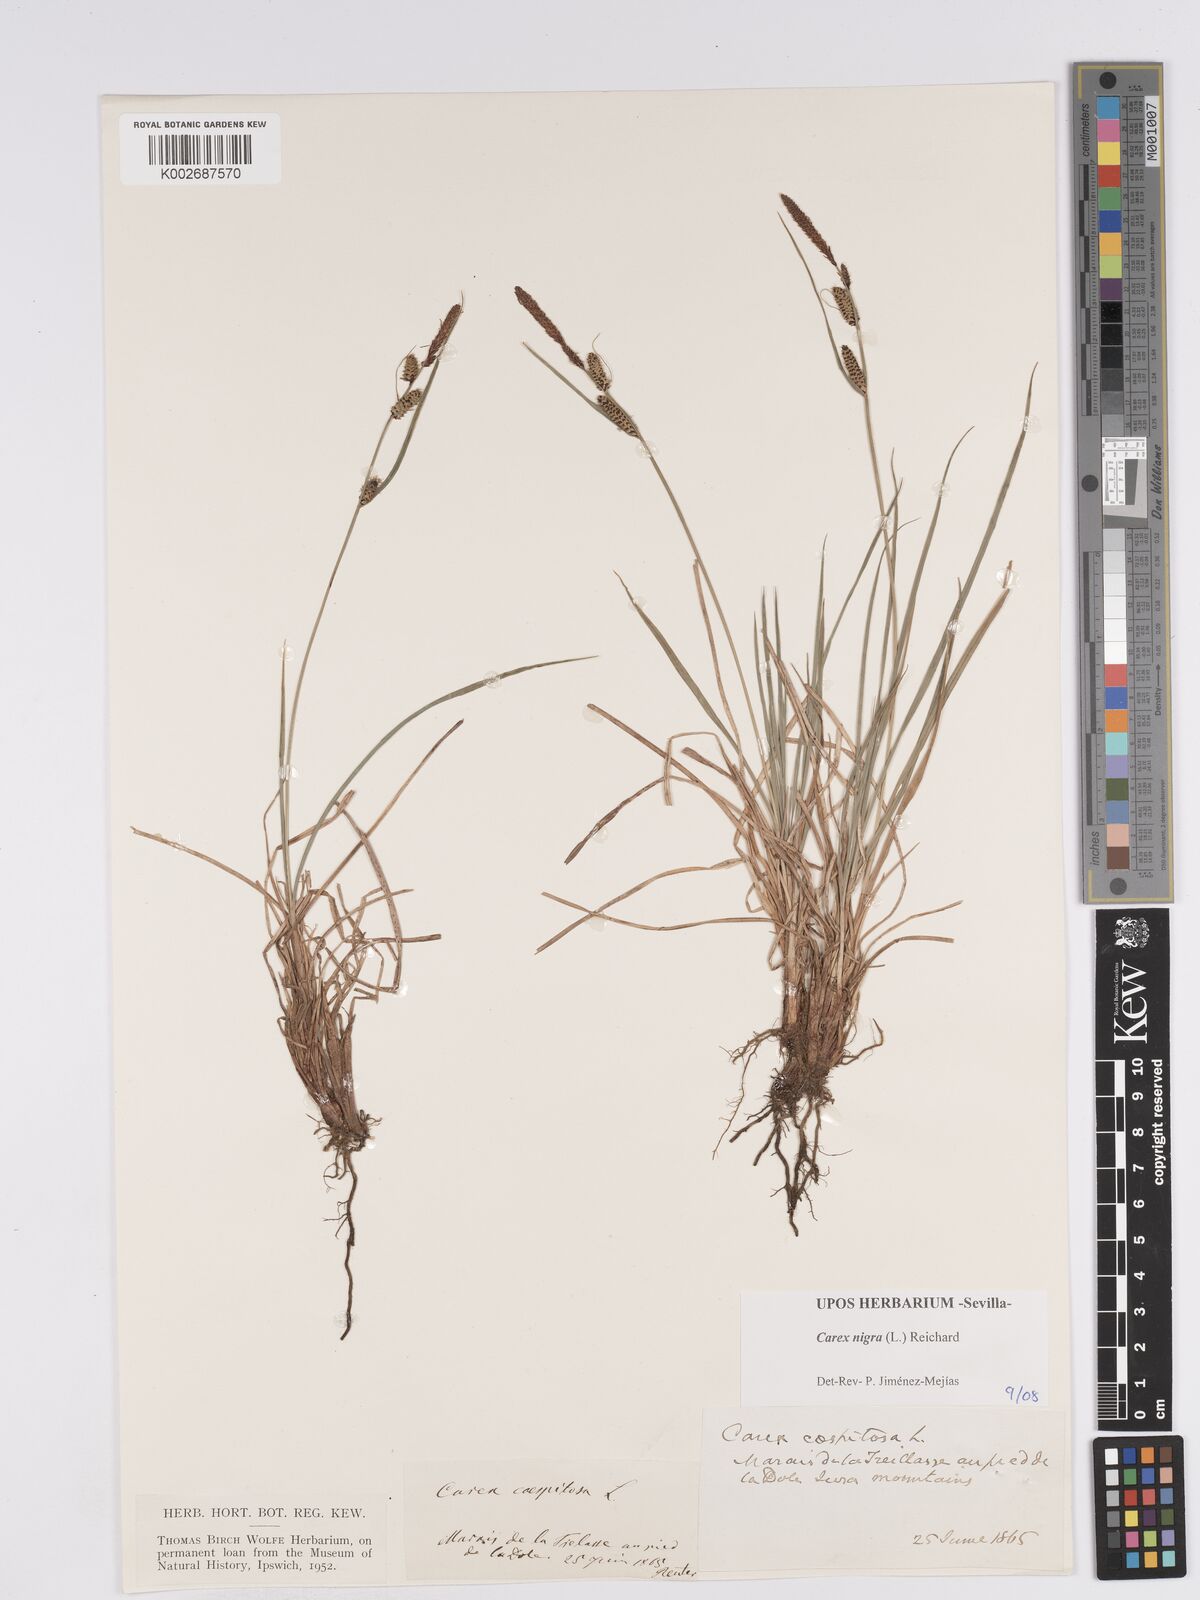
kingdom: Plantae
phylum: Tracheophyta
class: Liliopsida
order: Poales
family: Cyperaceae
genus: Carex
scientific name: Carex nigra
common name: Common sedge
